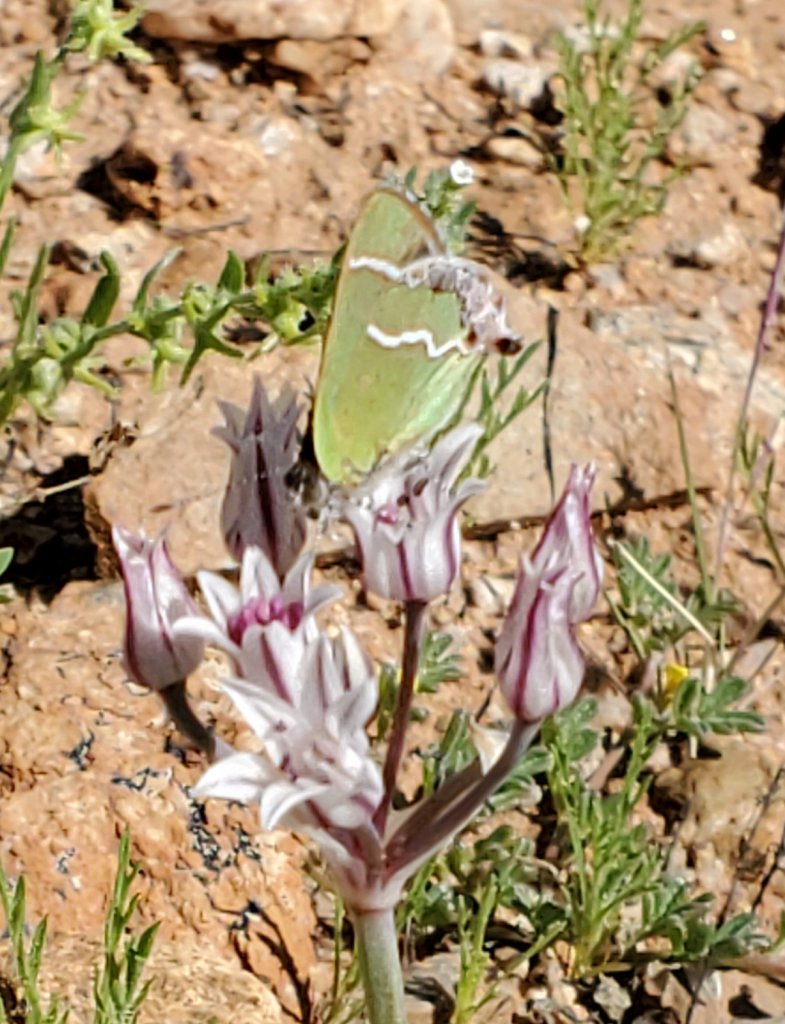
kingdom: Animalia
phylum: Arthropoda
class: Insecta
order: Lepidoptera
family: Lycaenidae
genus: Chlorostrymon
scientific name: Chlorostrymon simaethis
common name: Silver-banded Hairstreak
